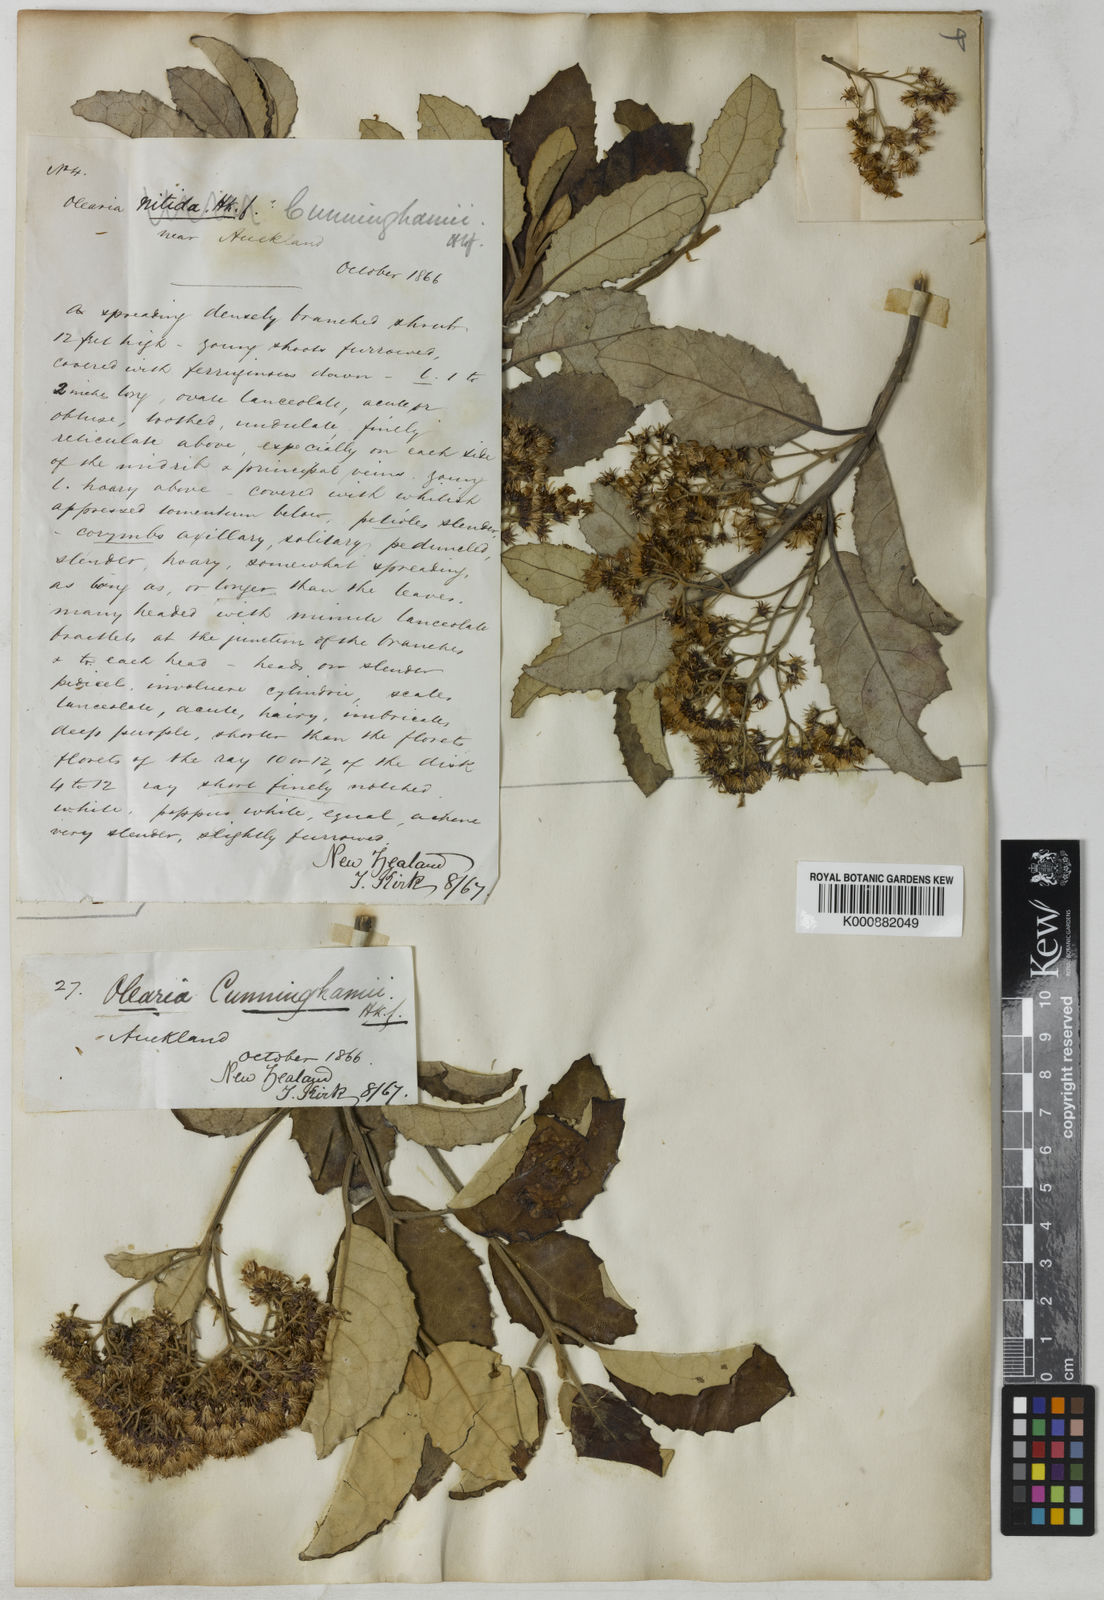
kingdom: Plantae
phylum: Tracheophyta
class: Magnoliopsida
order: Asterales
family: Asteraceae
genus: Olearia
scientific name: Olearia ilicifolia
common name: Maori-holly
